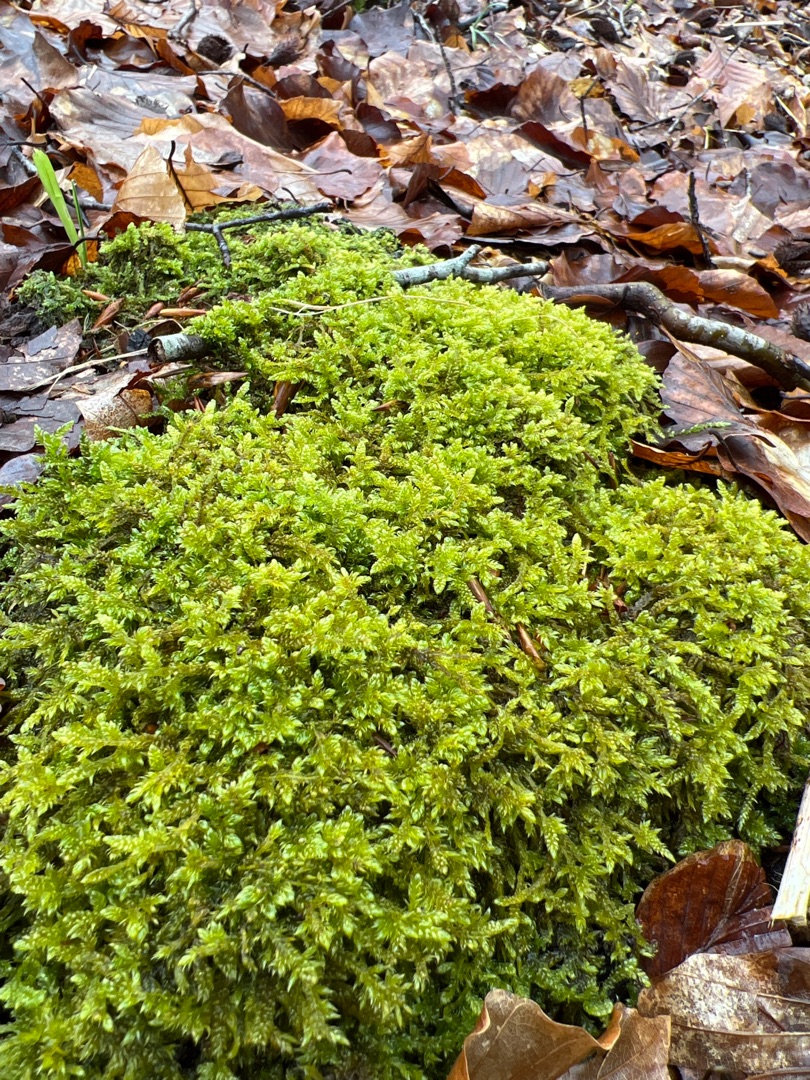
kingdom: Plantae
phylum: Bryophyta
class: Bryopsida
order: Hypnales
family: Hypnaceae
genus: Hypnum
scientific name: Hypnum cupressiforme
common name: Almindelig cypresmos
